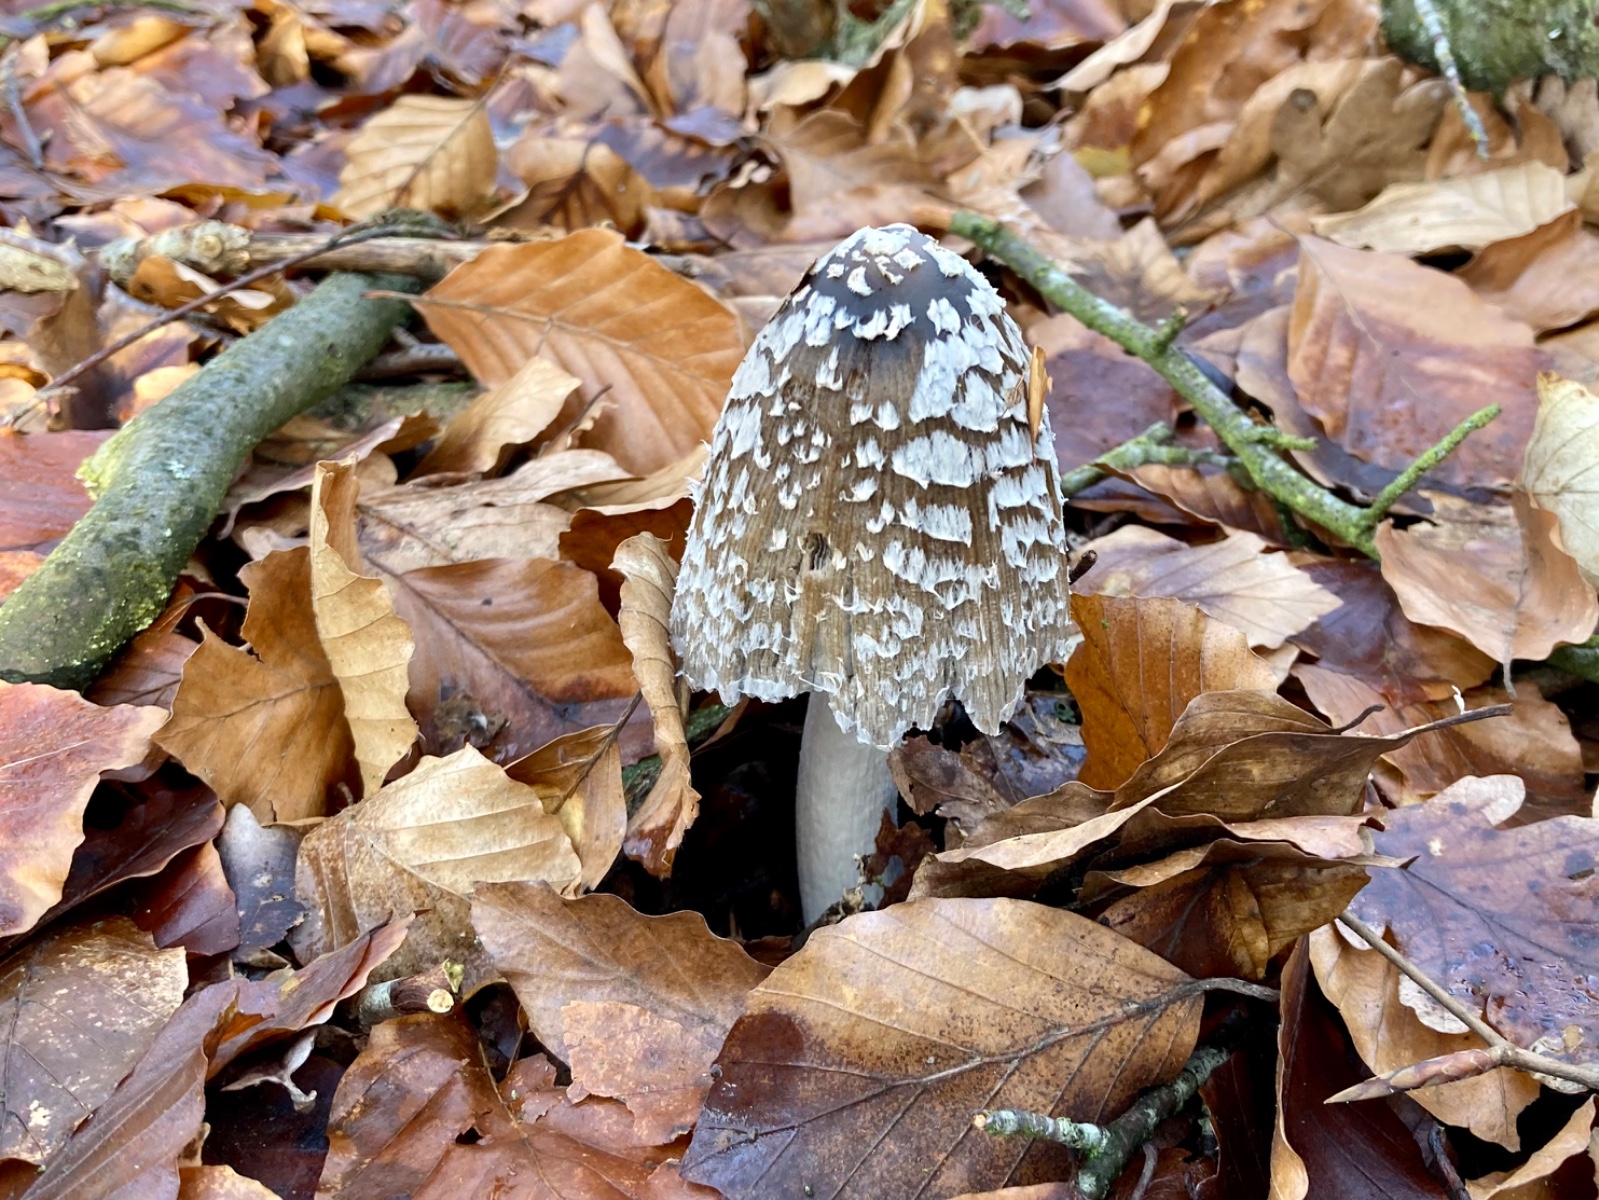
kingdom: Fungi
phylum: Basidiomycota
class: Agaricomycetes
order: Agaricales
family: Psathyrellaceae
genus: Coprinopsis
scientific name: Coprinopsis picacea
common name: skade-blækhat
